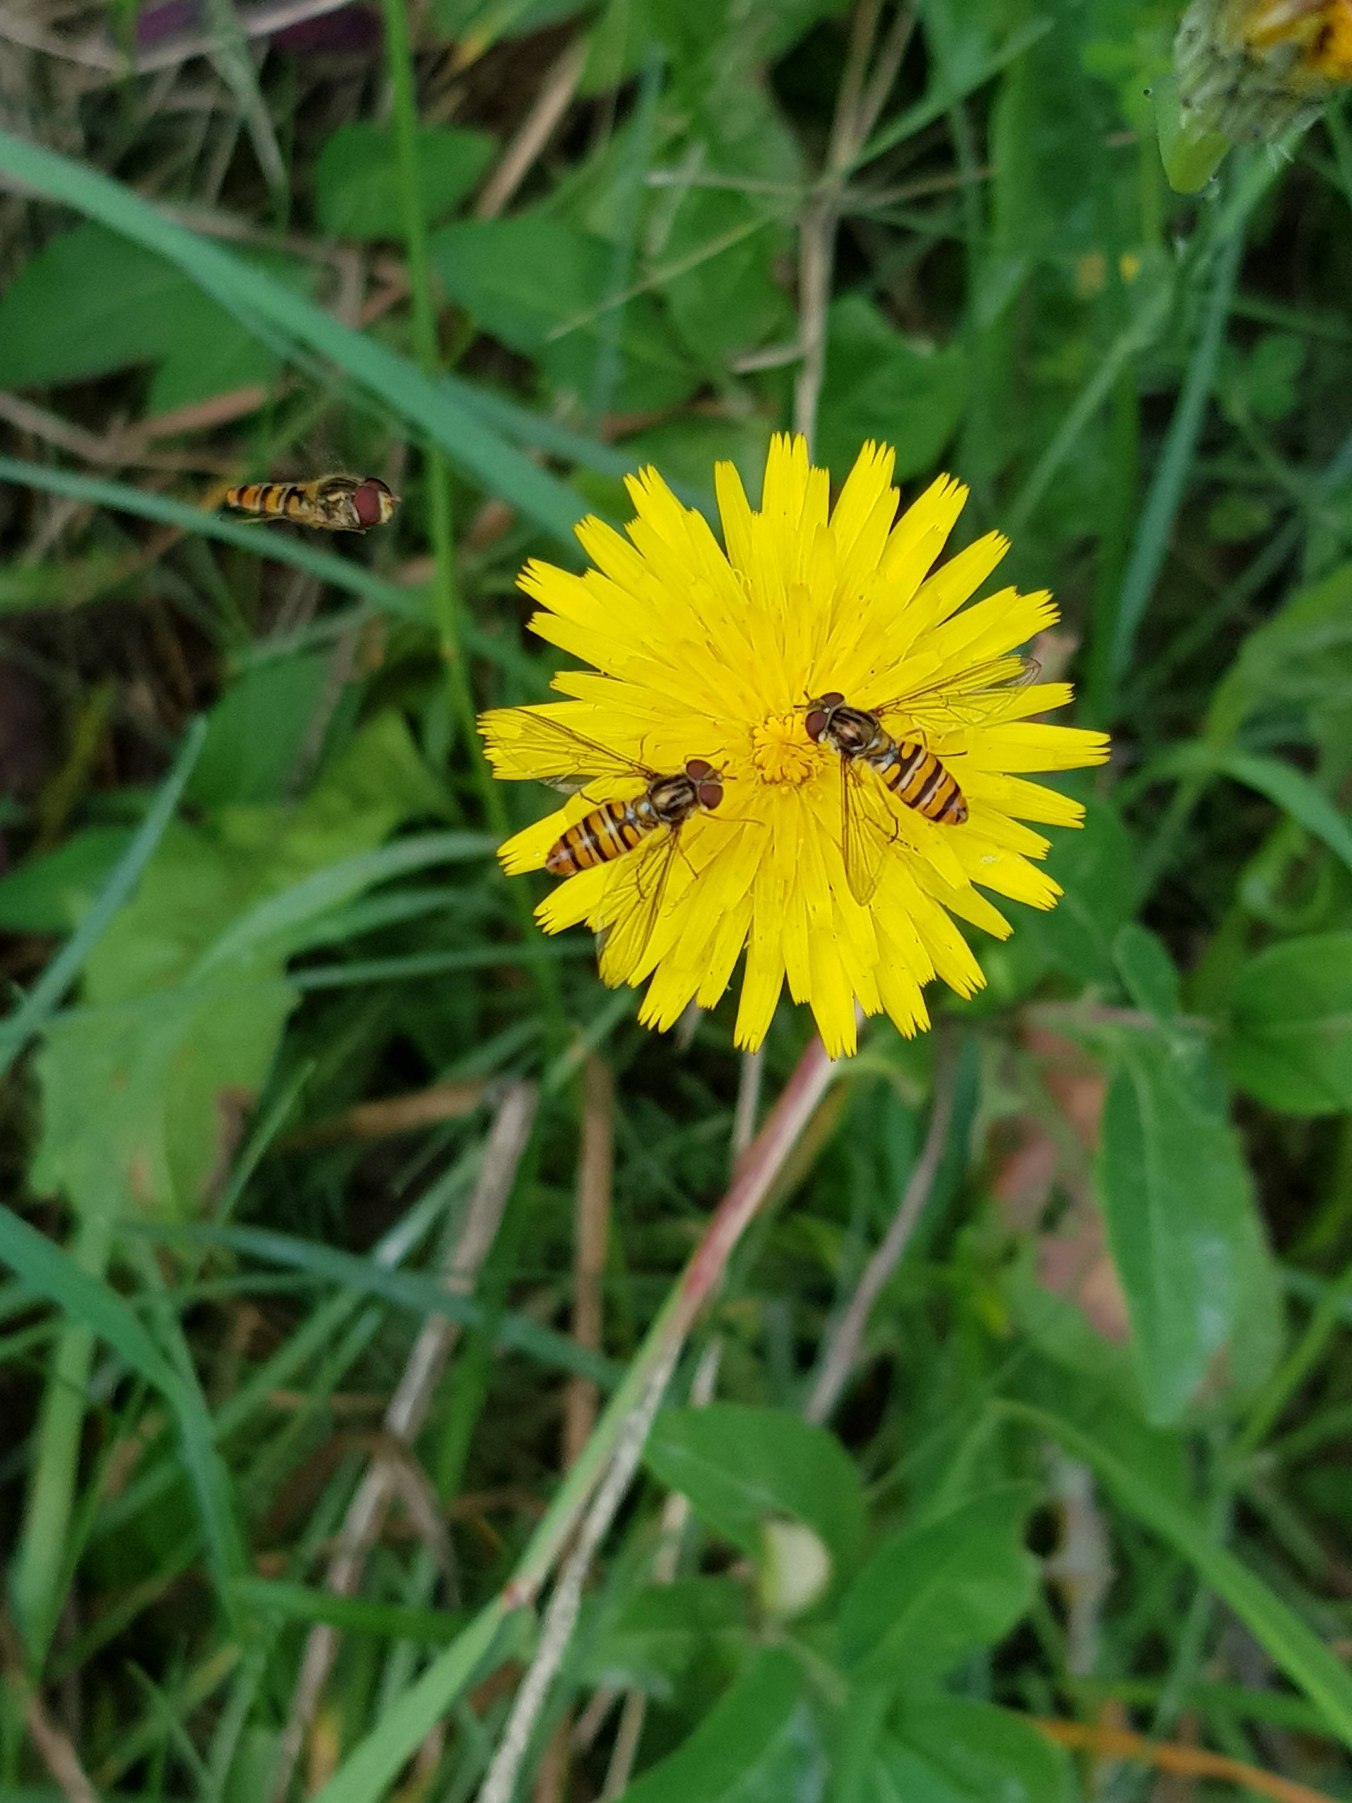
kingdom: Animalia
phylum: Arthropoda
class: Insecta
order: Diptera
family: Syrphidae
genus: Episyrphus
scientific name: Episyrphus balteatus
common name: Dobbeltbåndet svirreflue
